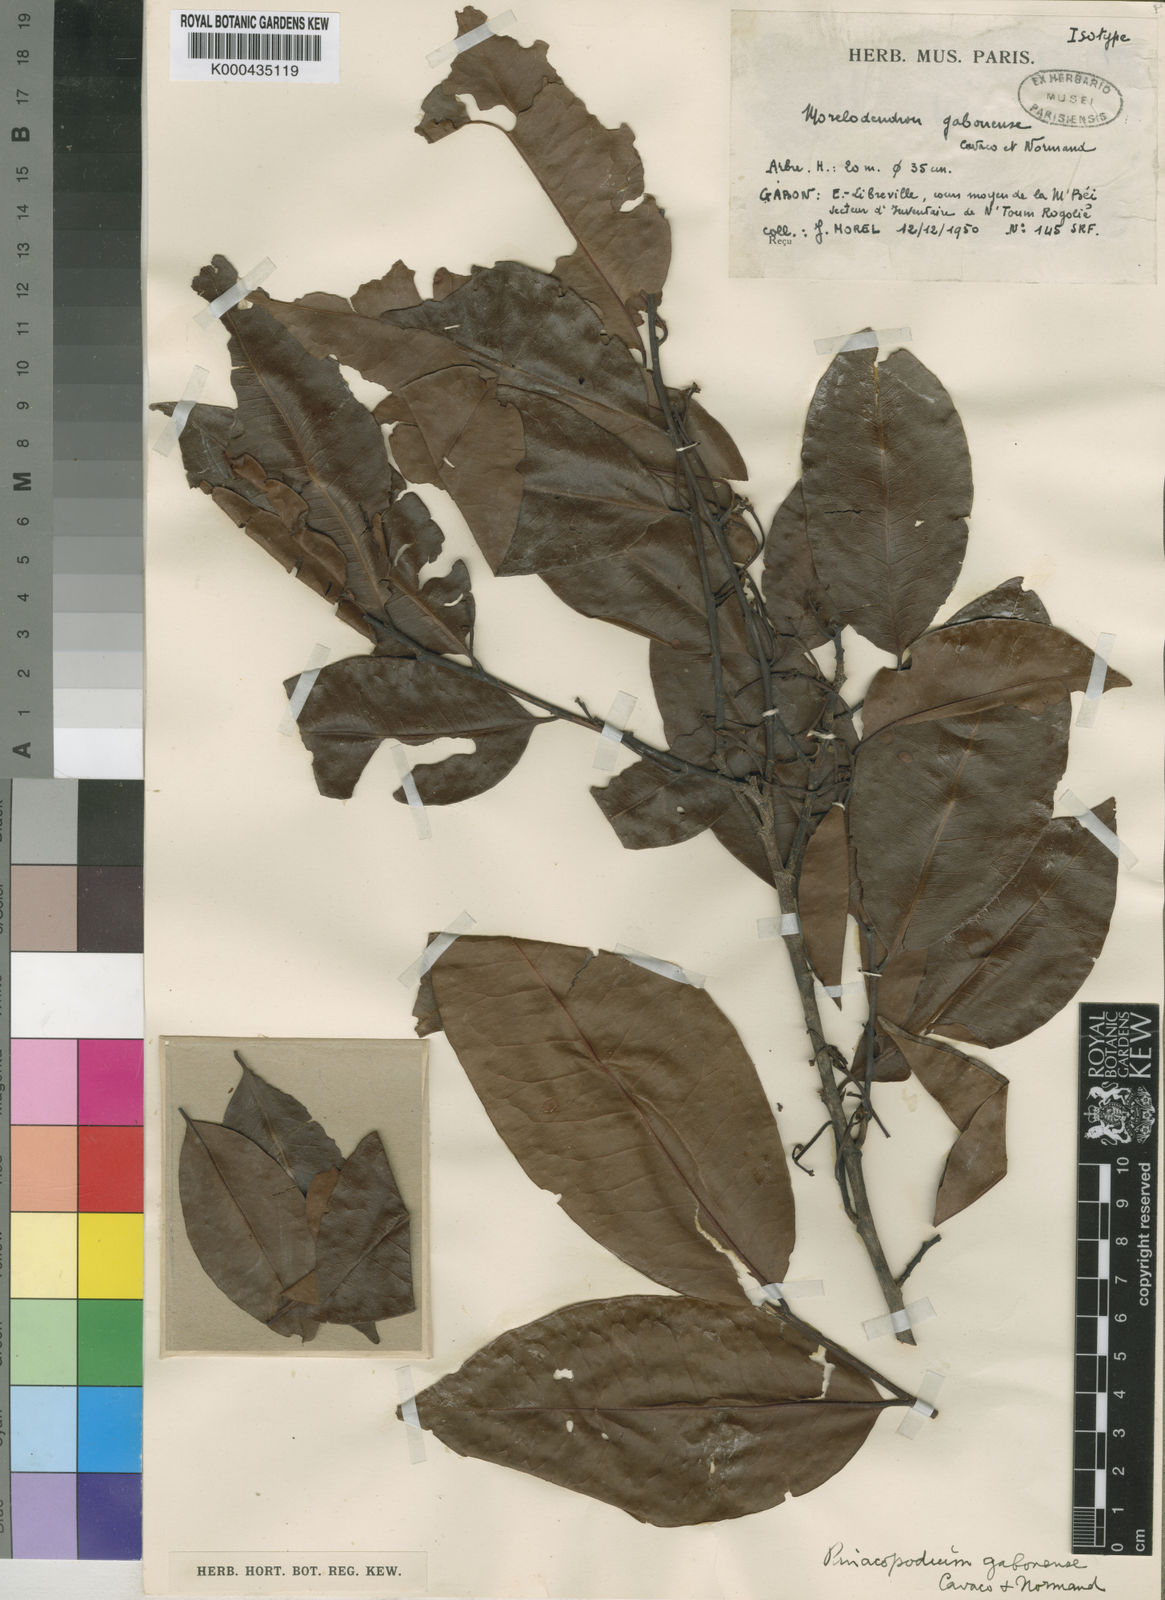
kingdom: Plantae
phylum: Tracheophyta
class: Magnoliopsida
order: Malpighiales
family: Erythroxylaceae
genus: Pinacopodium
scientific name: Pinacopodium gabonense
